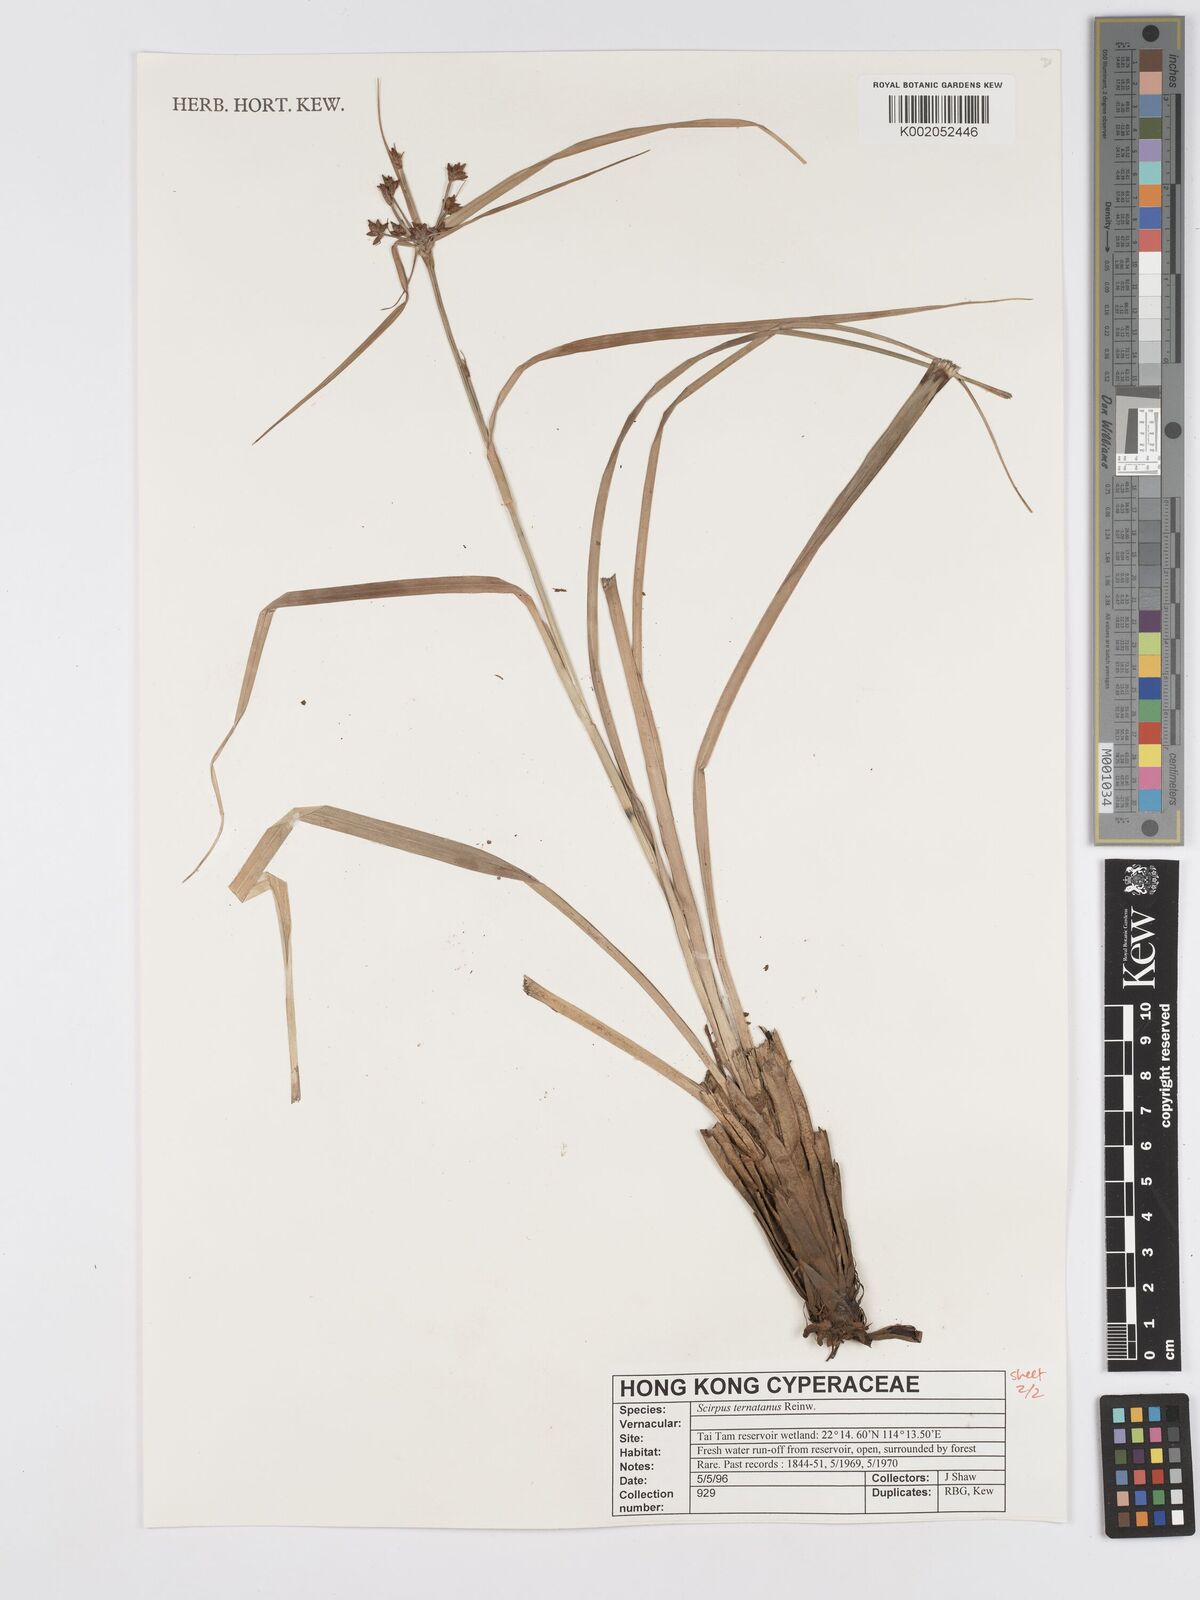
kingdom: Plantae
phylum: Tracheophyta
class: Liliopsida
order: Poales
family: Cyperaceae
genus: Scirpus
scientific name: Scirpus ternatanus
